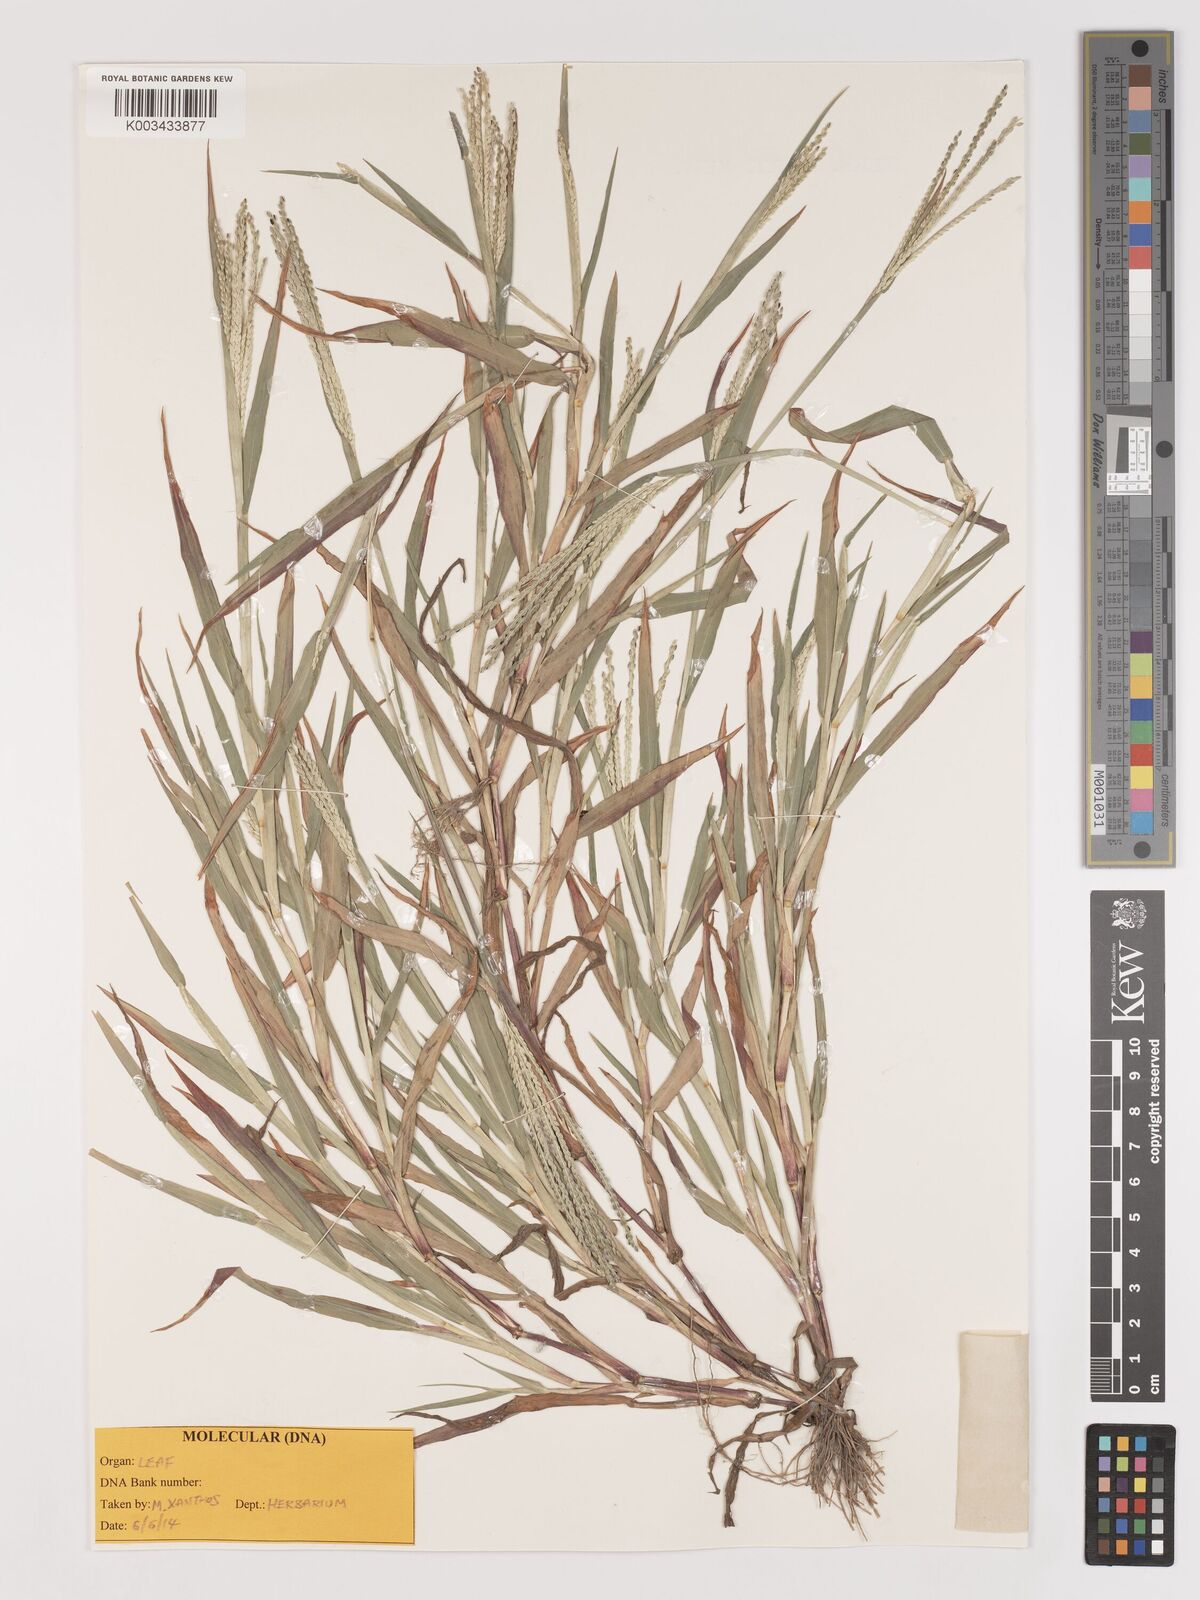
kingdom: Plantae
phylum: Tracheophyta
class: Liliopsida
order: Poales
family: Poaceae
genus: Digitaria
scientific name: Digitaria ischaemum
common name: Smooth crabgrass
